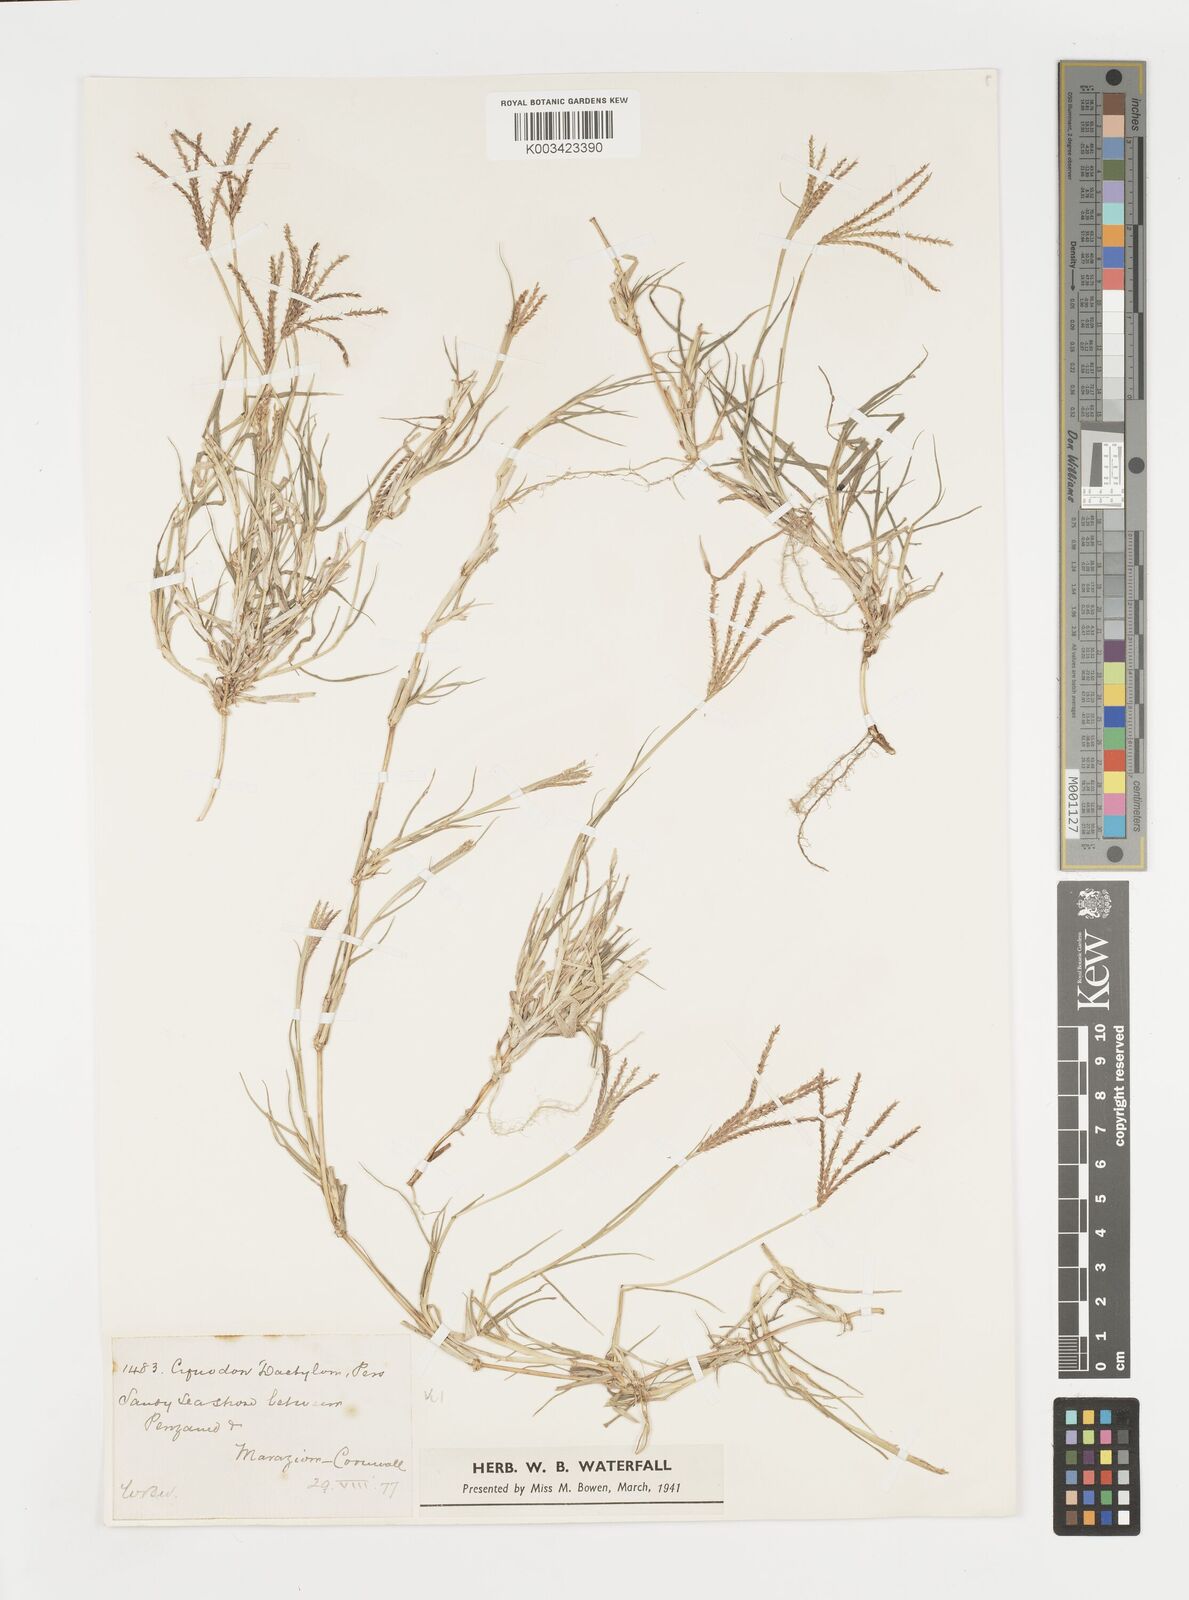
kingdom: Plantae
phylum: Tracheophyta
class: Liliopsida
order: Poales
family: Poaceae
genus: Cynodon
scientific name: Cynodon dactylon
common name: Bermuda grass
